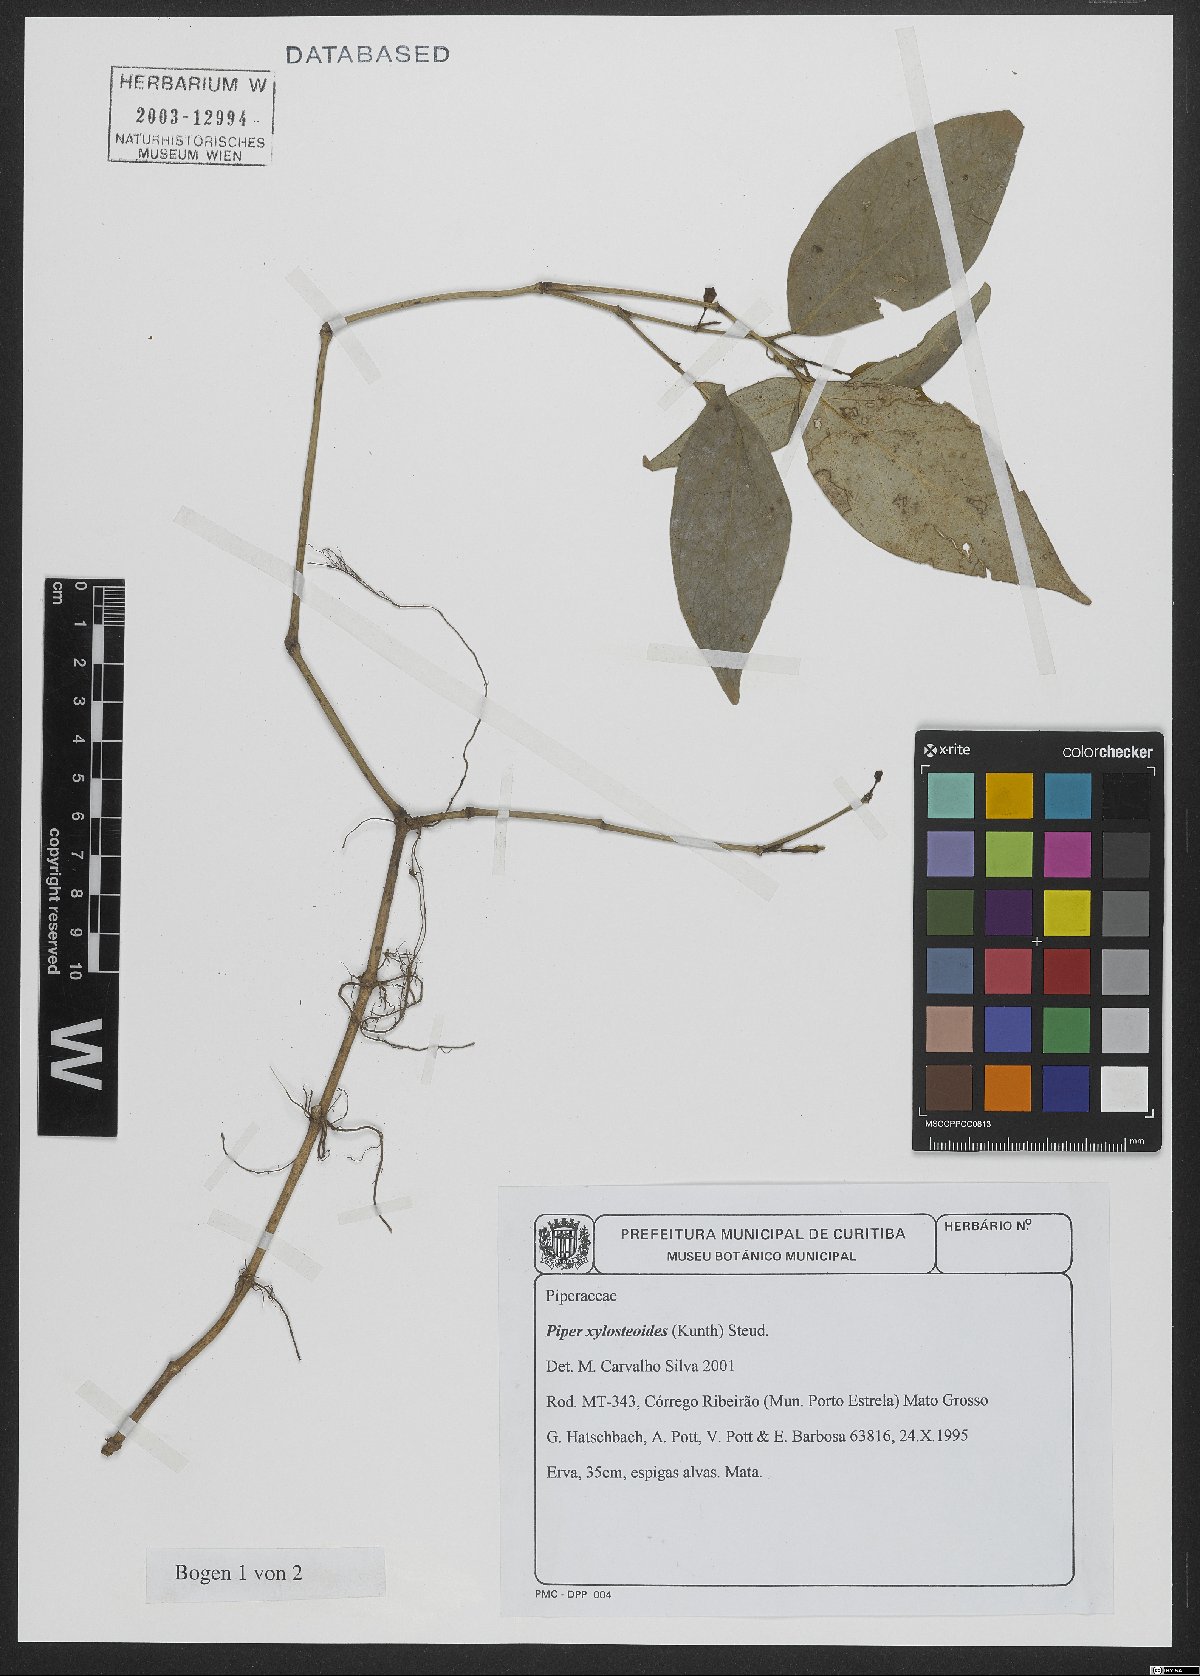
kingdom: Plantae
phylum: Tracheophyta
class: Magnoliopsida
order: Piperales
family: Piperaceae
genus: Piper
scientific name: Piper xylosteoides
